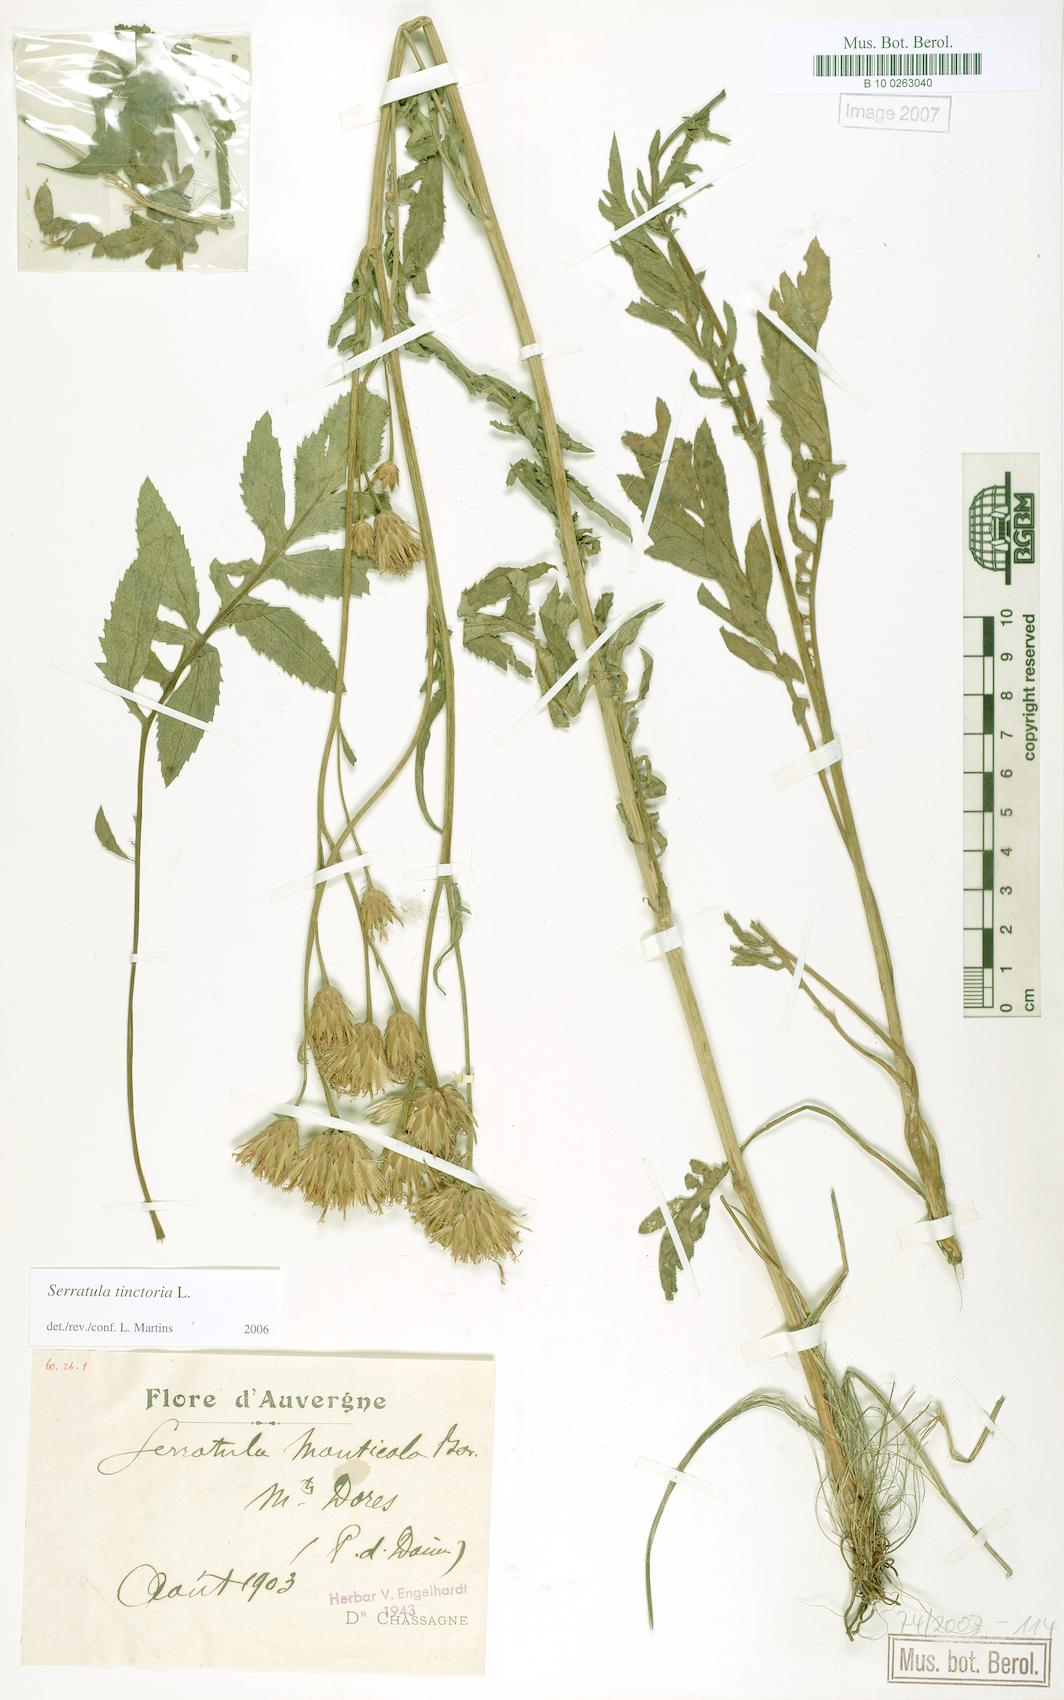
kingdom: Plantae
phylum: Tracheophyta
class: Magnoliopsida
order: Asterales
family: Asteraceae
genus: Serratula
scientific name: Serratula tinctoria
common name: Saw-wort
